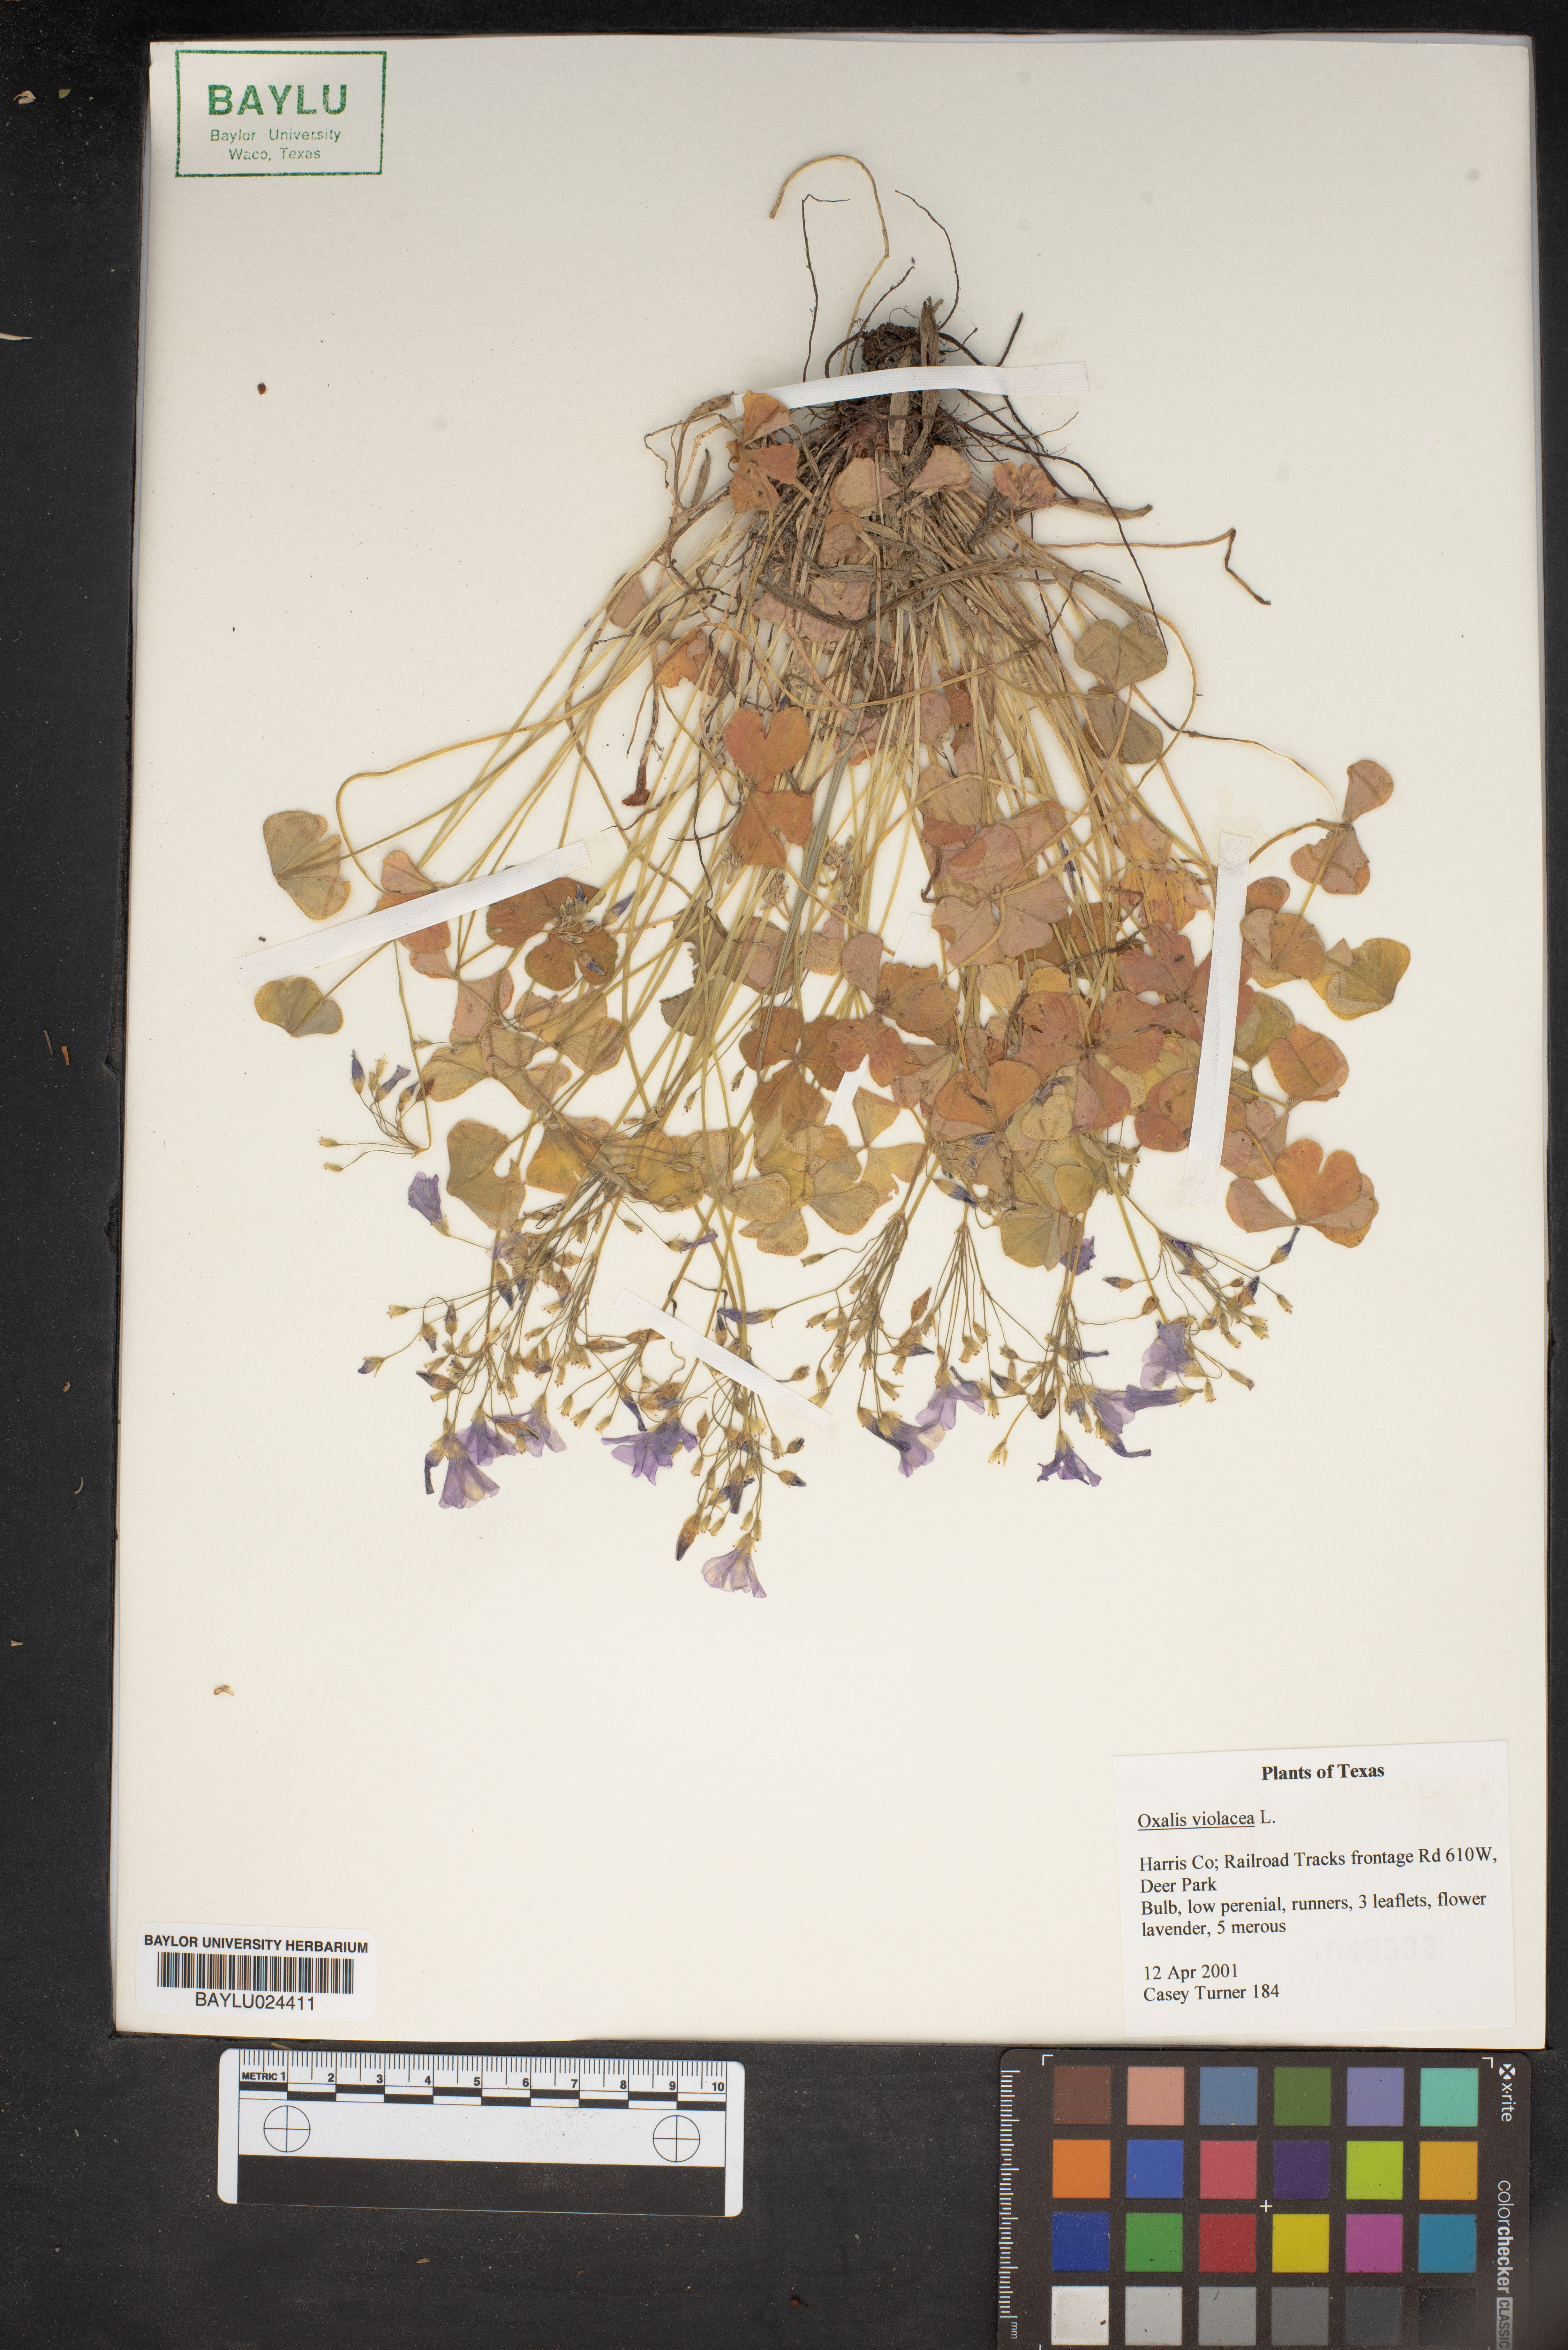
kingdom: Plantae
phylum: Tracheophyta
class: Magnoliopsida
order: Oxalidales
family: Oxalidaceae
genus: Oxalis
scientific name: Oxalis violacea
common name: Violet wood-sorrel
